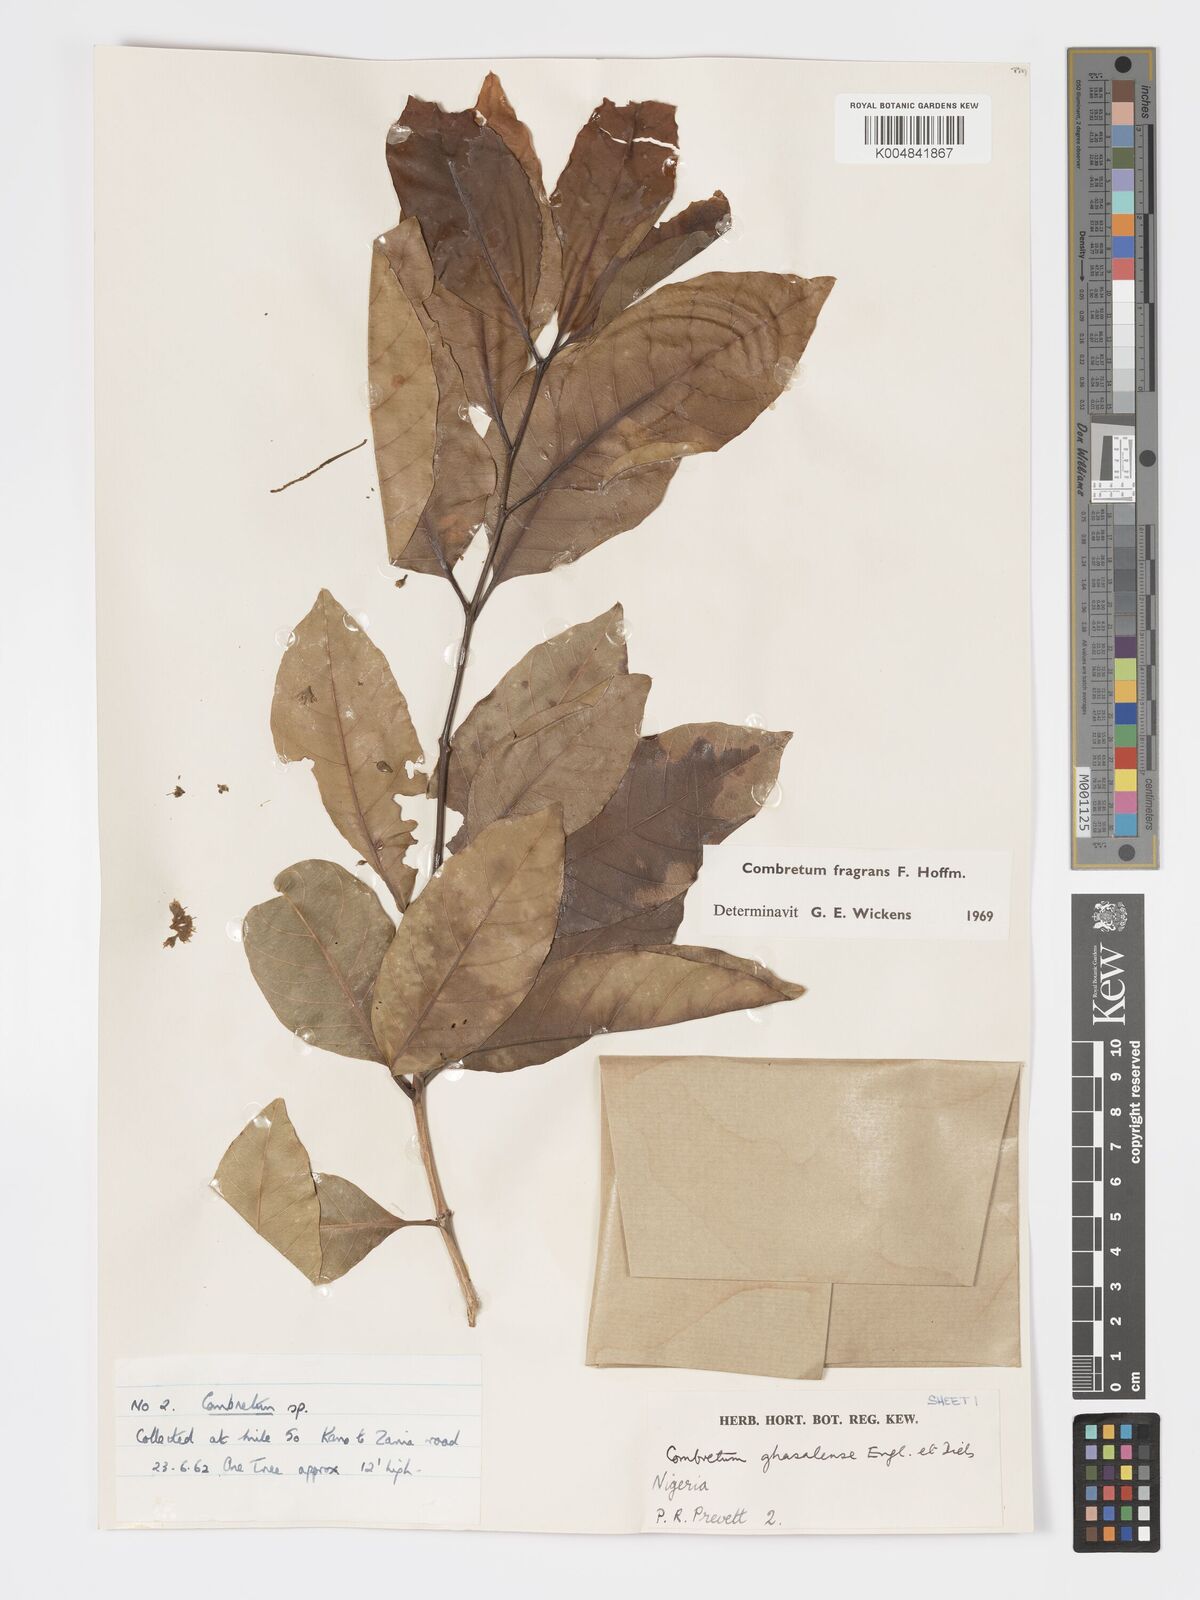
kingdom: Plantae
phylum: Tracheophyta
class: Magnoliopsida
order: Myrtales
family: Combretaceae
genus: Combretum
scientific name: Combretum adenogonium
